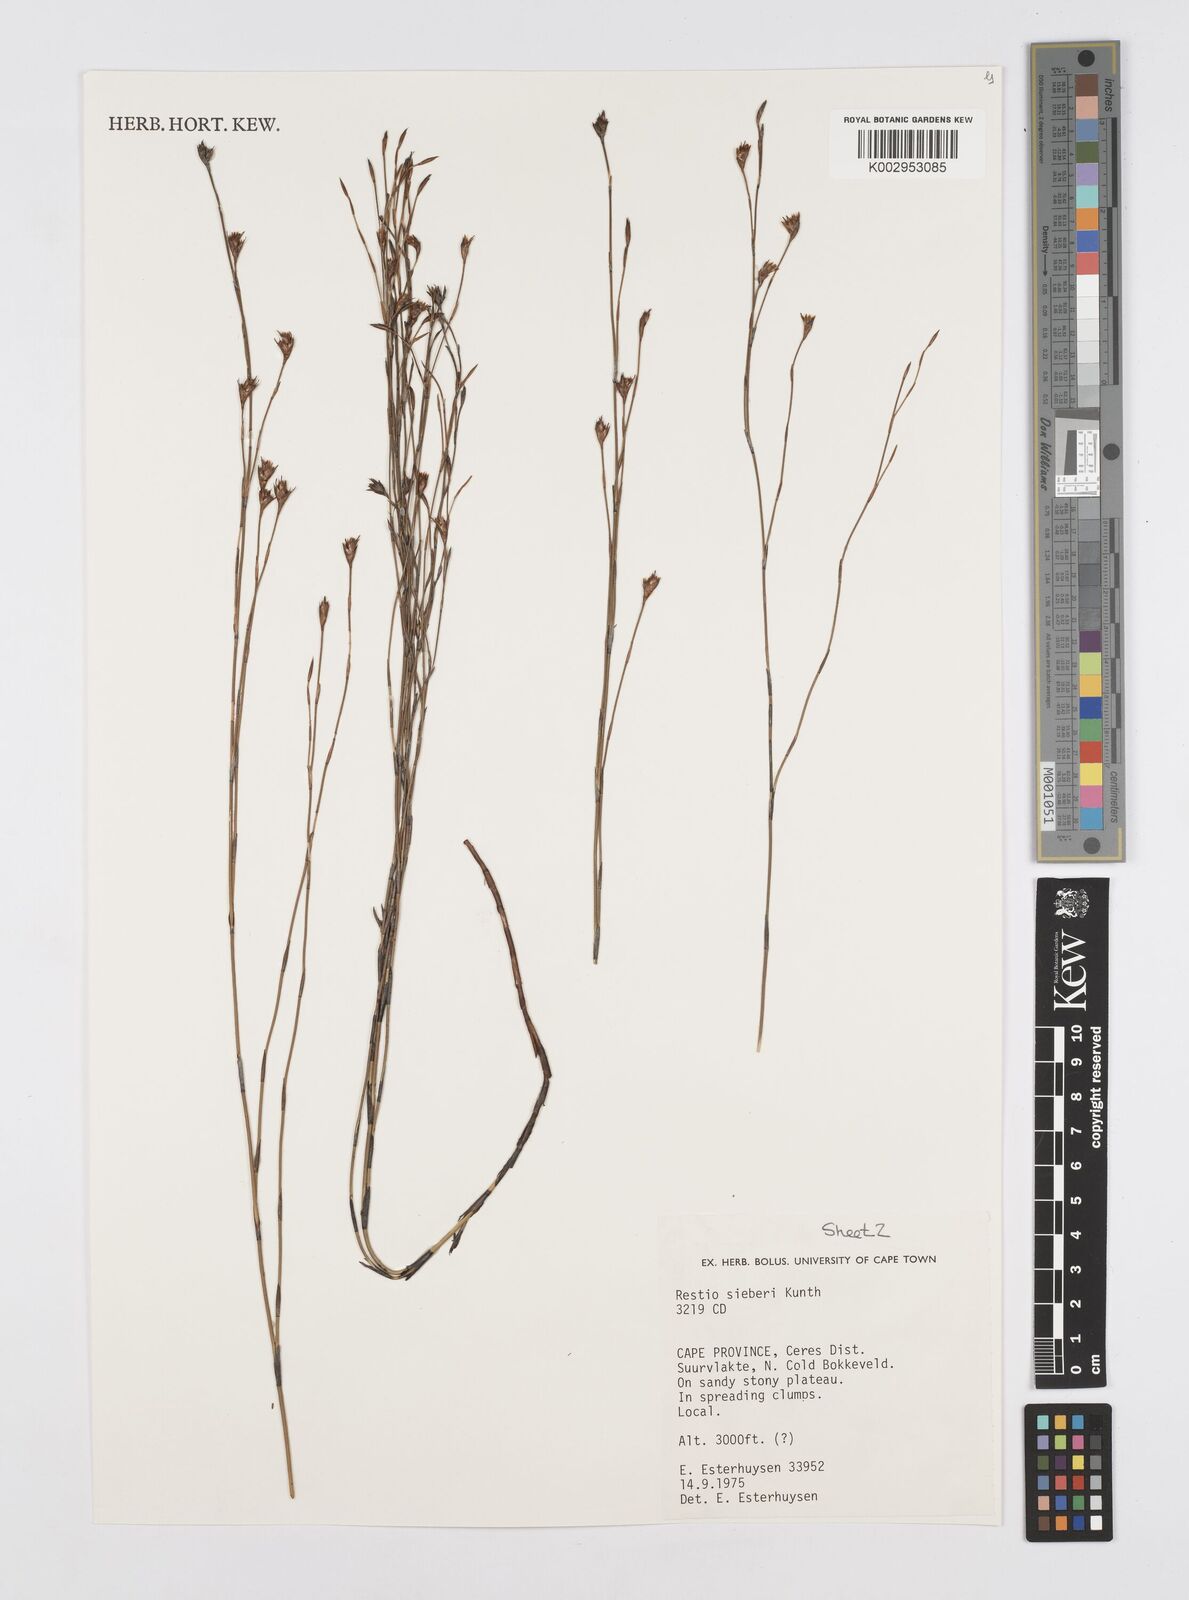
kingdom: Plantae
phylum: Tracheophyta
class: Liliopsida
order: Poales
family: Restionaceae
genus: Restio
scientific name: Restio sieberi
